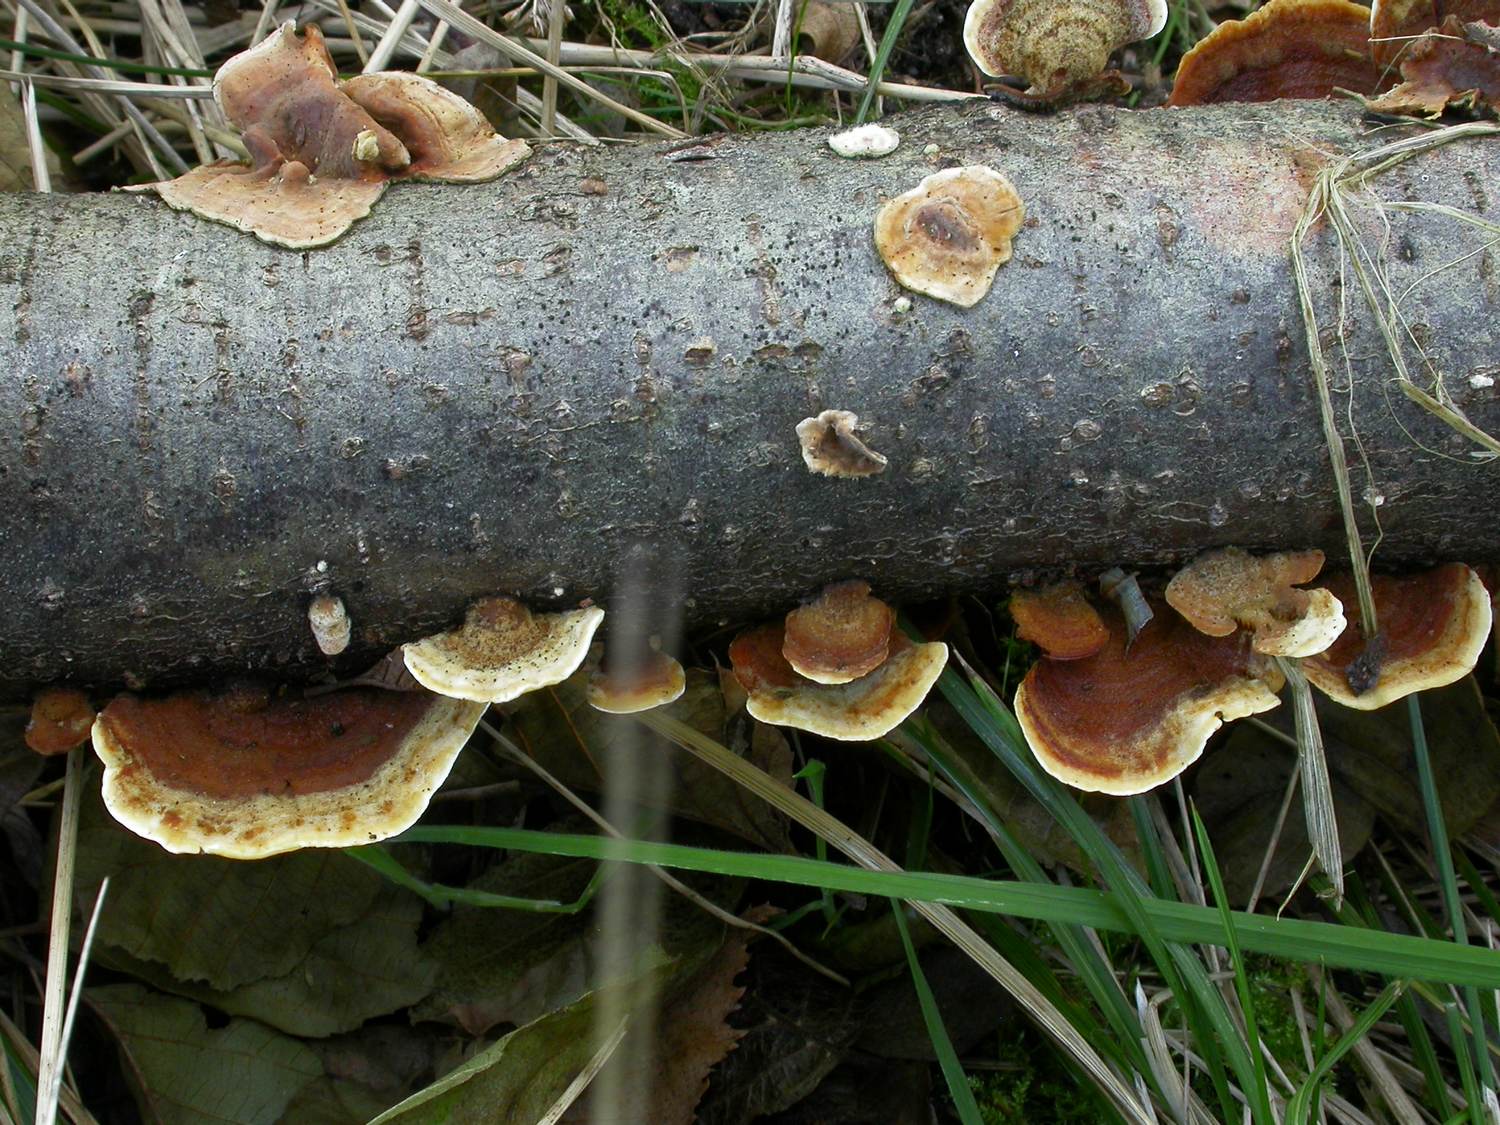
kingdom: Fungi
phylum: Basidiomycota
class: Agaricomycetes
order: Russulales
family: Stereaceae
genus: Stereum
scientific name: Stereum subtomentosum
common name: smuk lædersvamp
